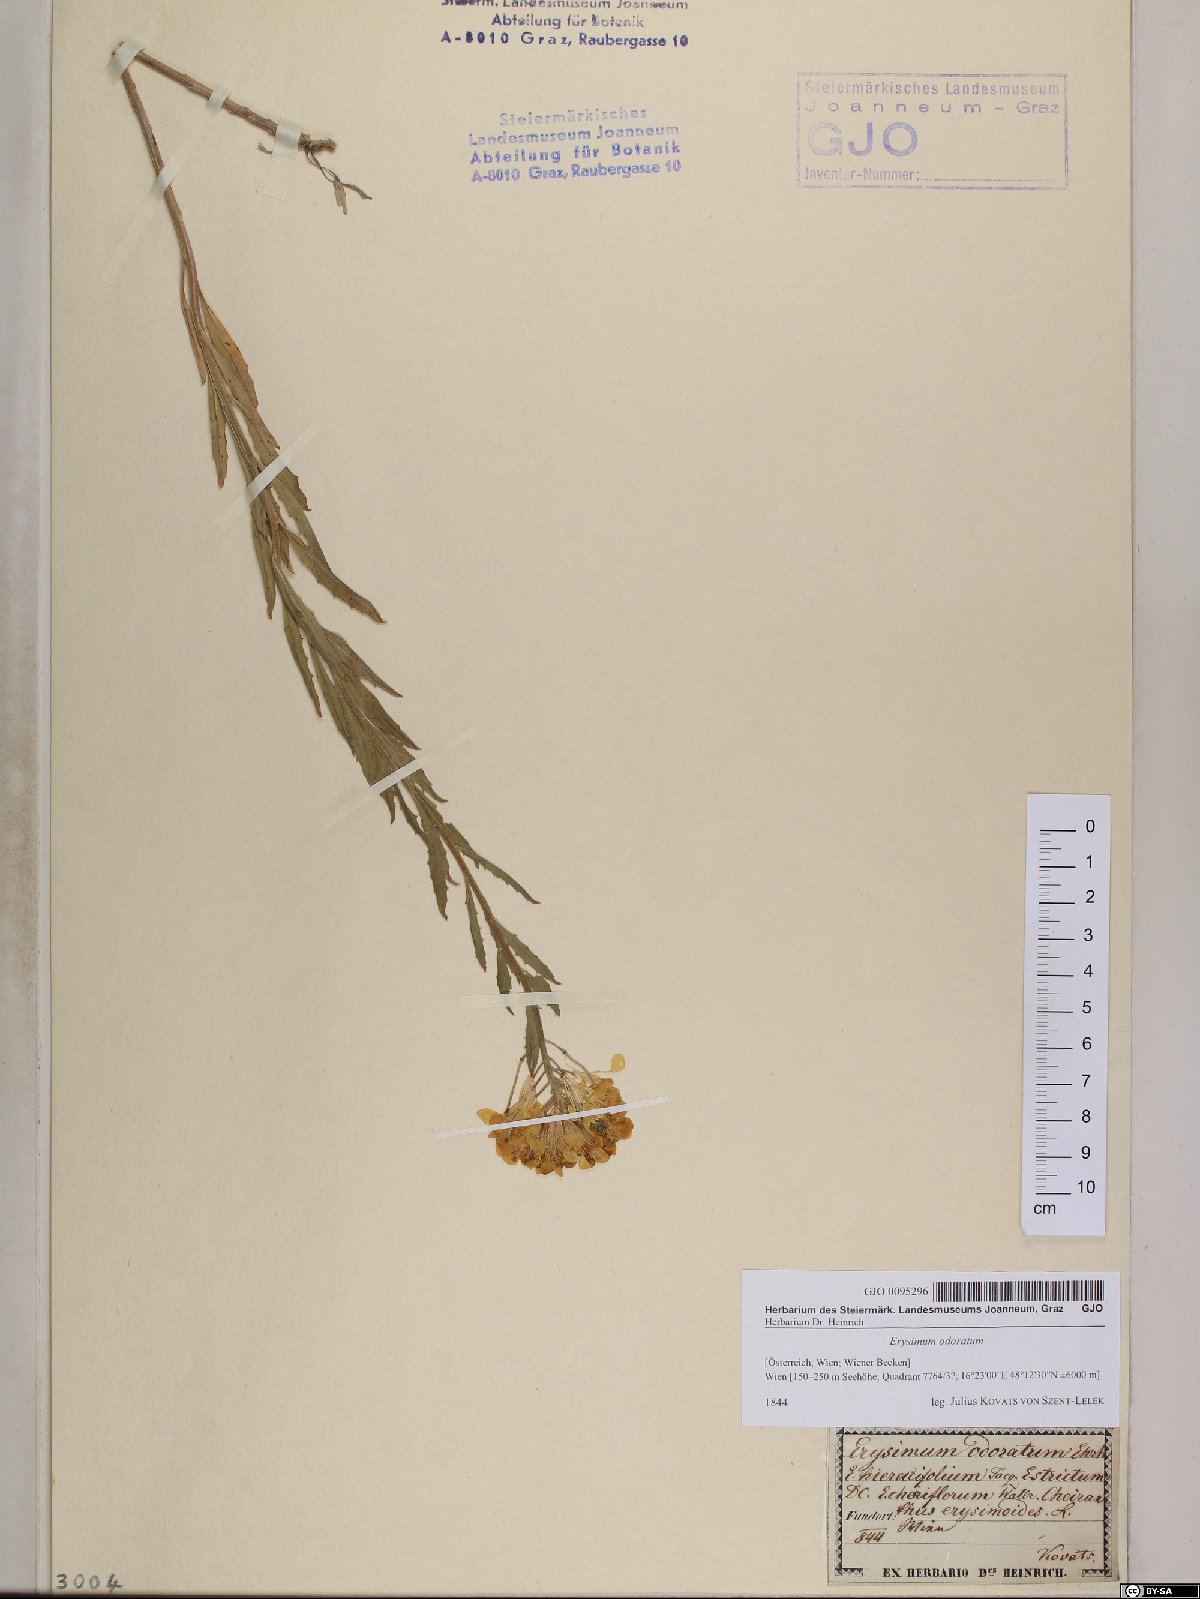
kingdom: Plantae
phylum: Tracheophyta
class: Magnoliopsida
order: Brassicales
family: Brassicaceae
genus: Erysimum
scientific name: Erysimum odoratum
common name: Smelly wallflower
